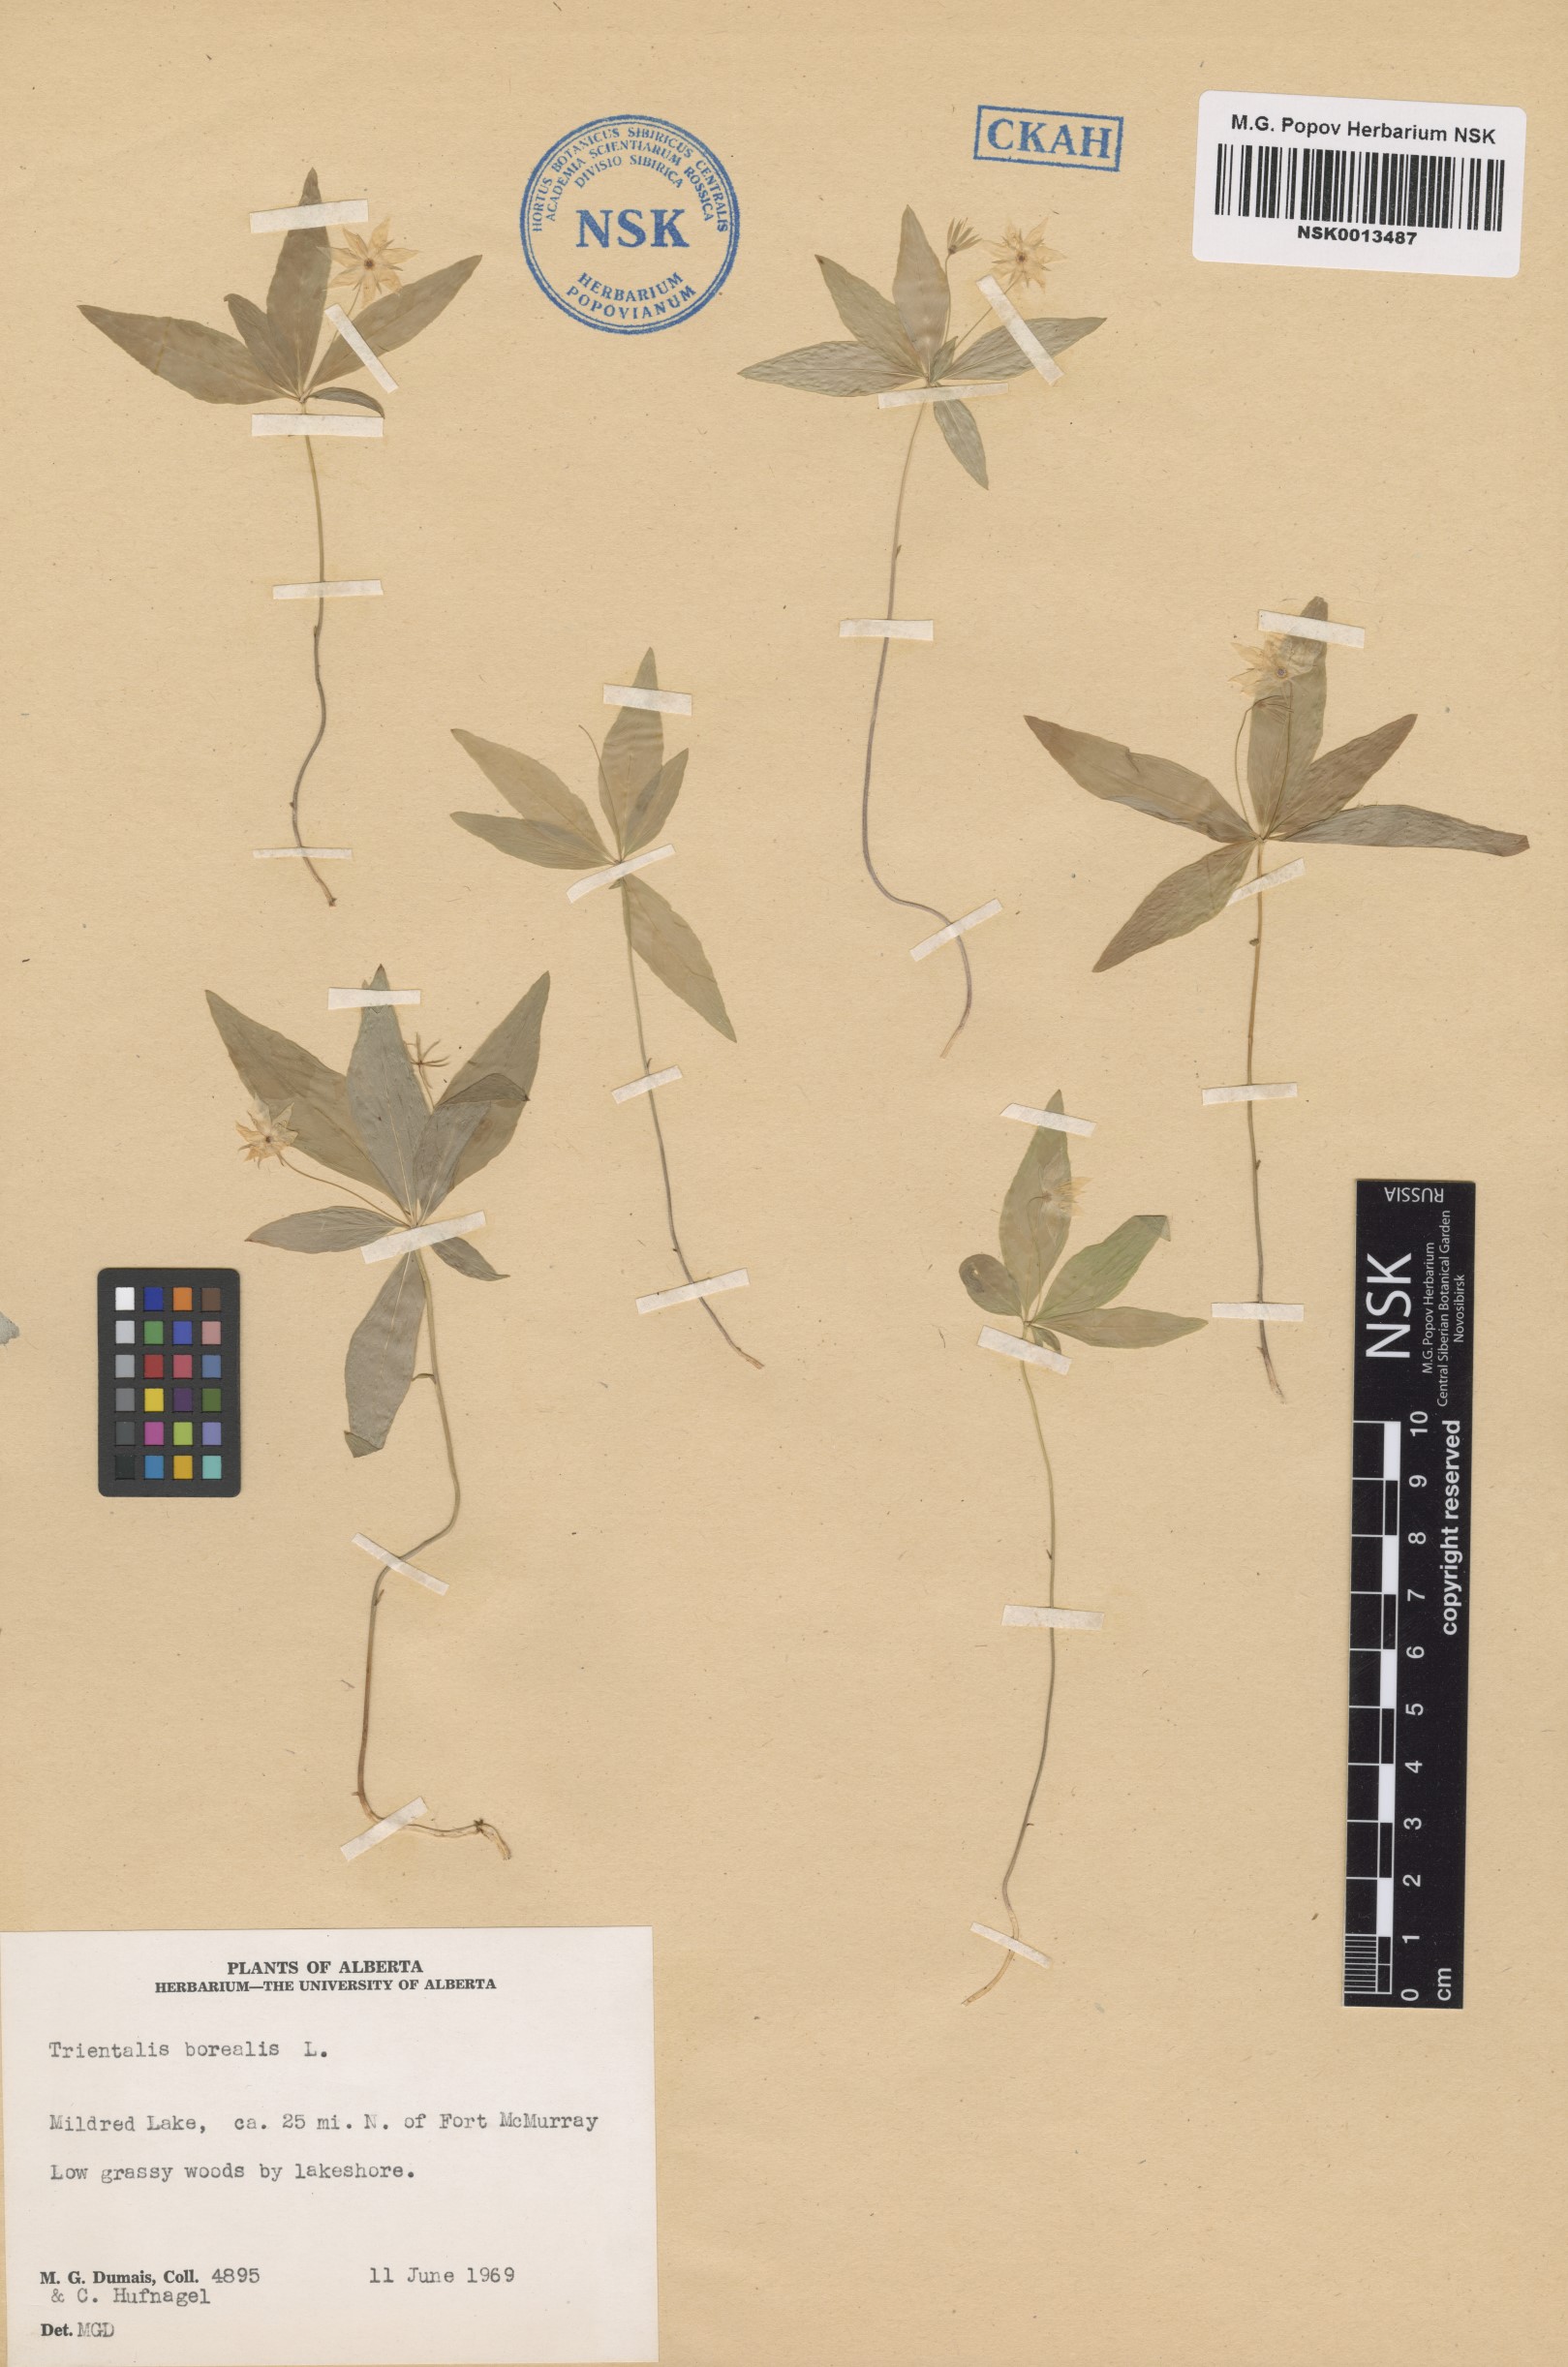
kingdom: Plantae
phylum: Tracheophyta
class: Magnoliopsida
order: Ericales
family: Primulaceae
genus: Lysimachia
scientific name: Lysimachia borealis
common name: American starflower
